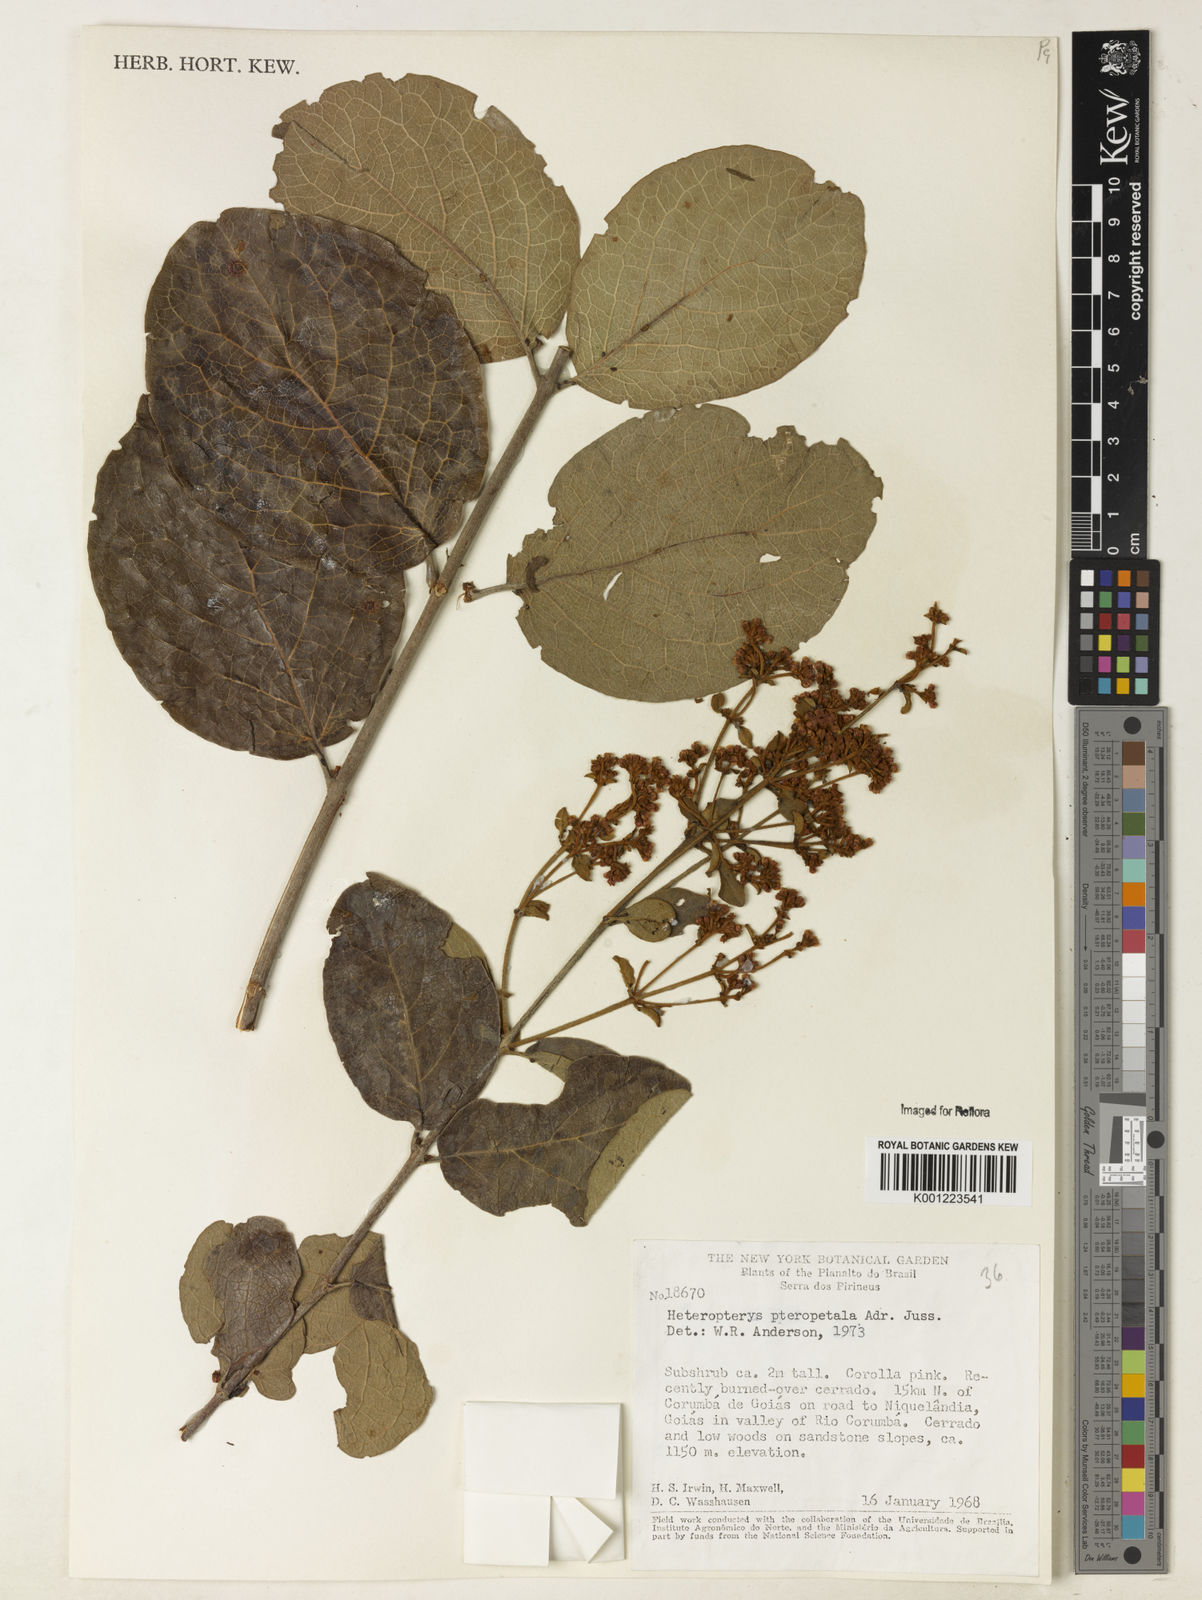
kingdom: Plantae
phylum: Tracheophyta
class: Magnoliopsida
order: Malpighiales
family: Malpighiaceae
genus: Heteropterys
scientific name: Heteropterys pteropetala
